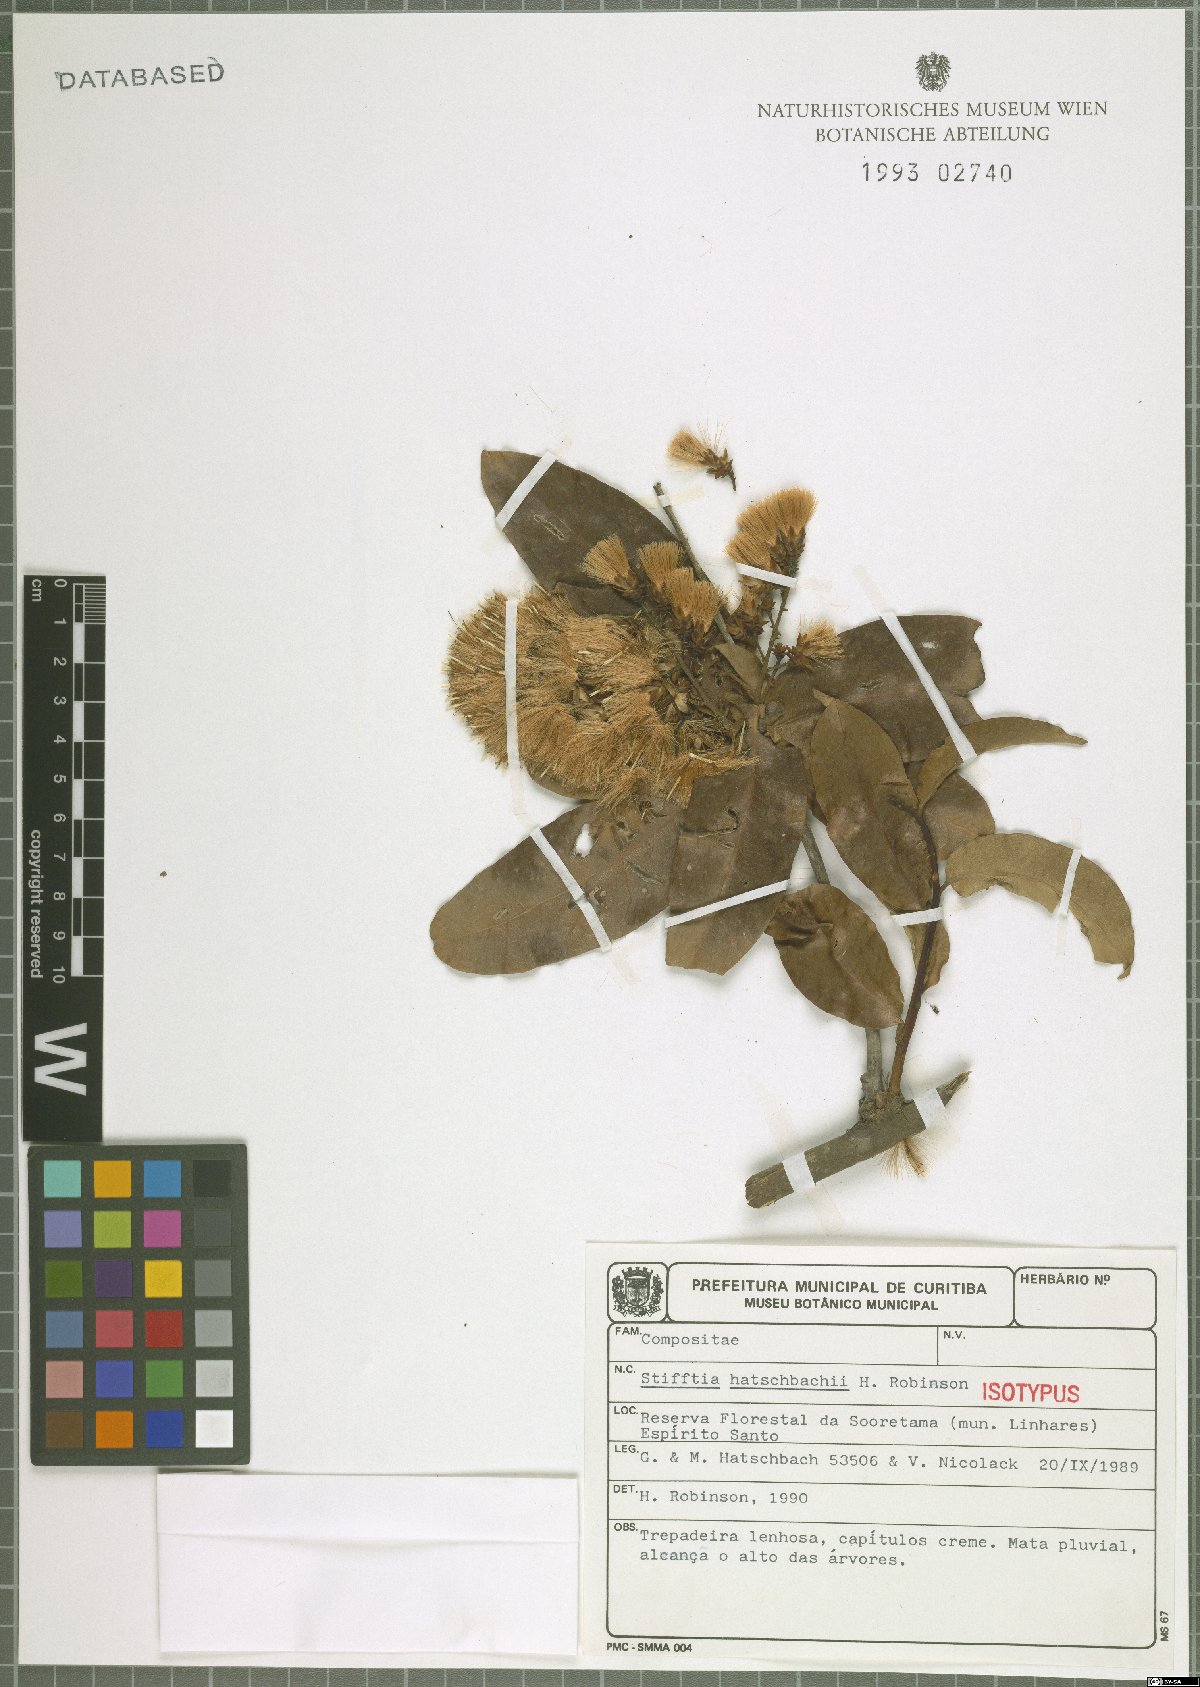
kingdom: Plantae
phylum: Tracheophyta
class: Magnoliopsida
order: Asterales
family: Asteraceae
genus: Stifftia
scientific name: Stifftia hatschbachii
